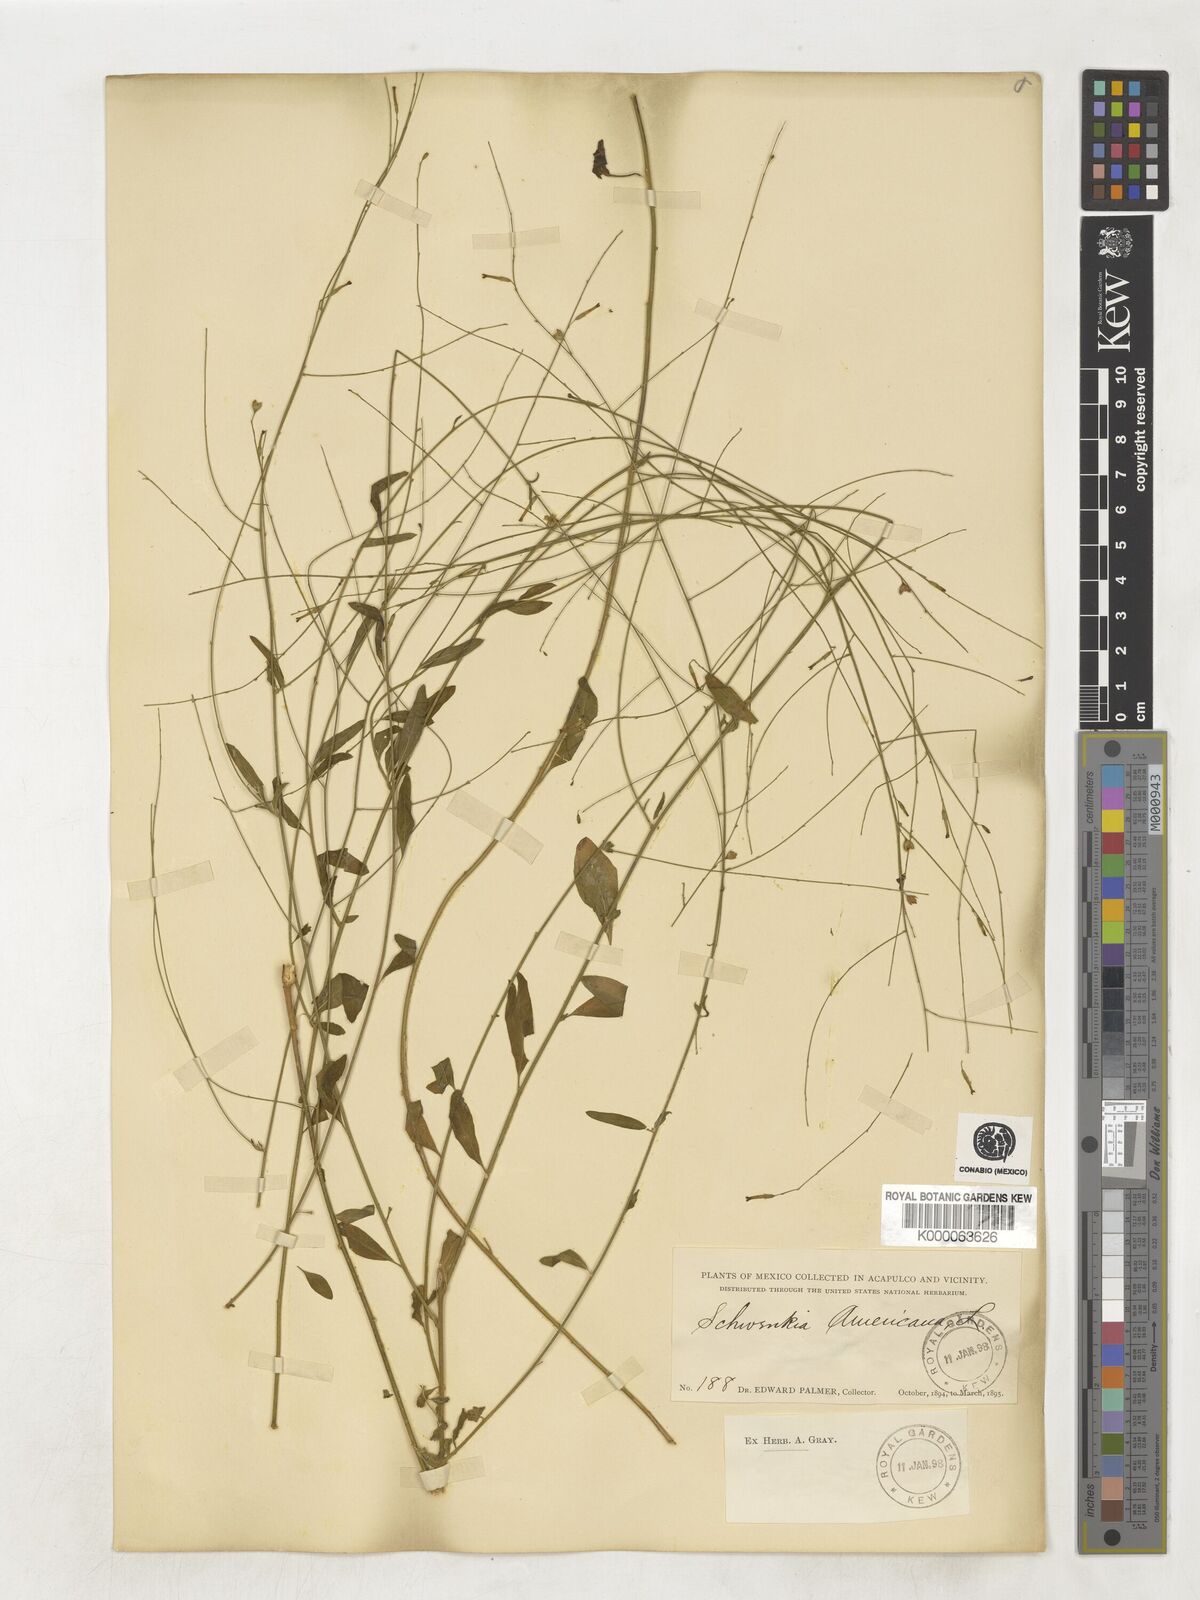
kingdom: Plantae
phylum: Tracheophyta
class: Magnoliopsida
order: Solanales
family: Solanaceae
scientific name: Solanaceae
